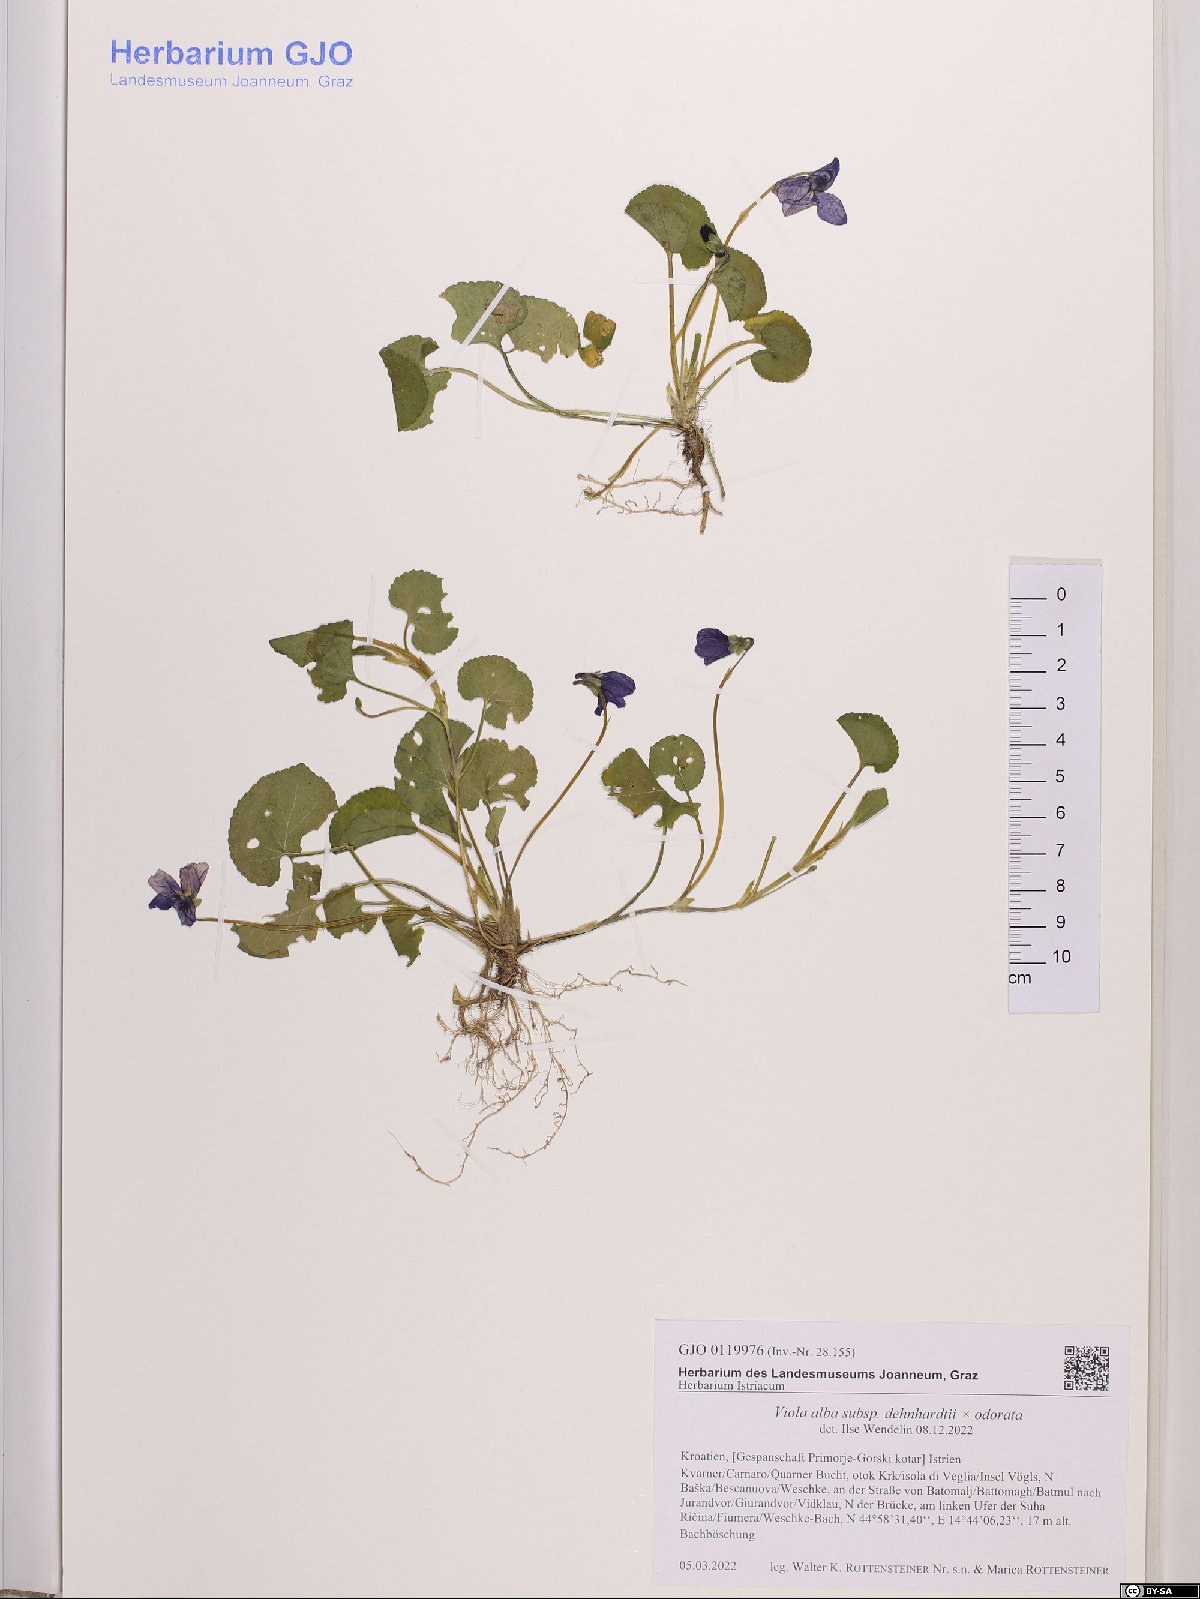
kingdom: Plantae
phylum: Tracheophyta
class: Magnoliopsida
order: Malpighiales
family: Violaceae
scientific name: Violaceae
